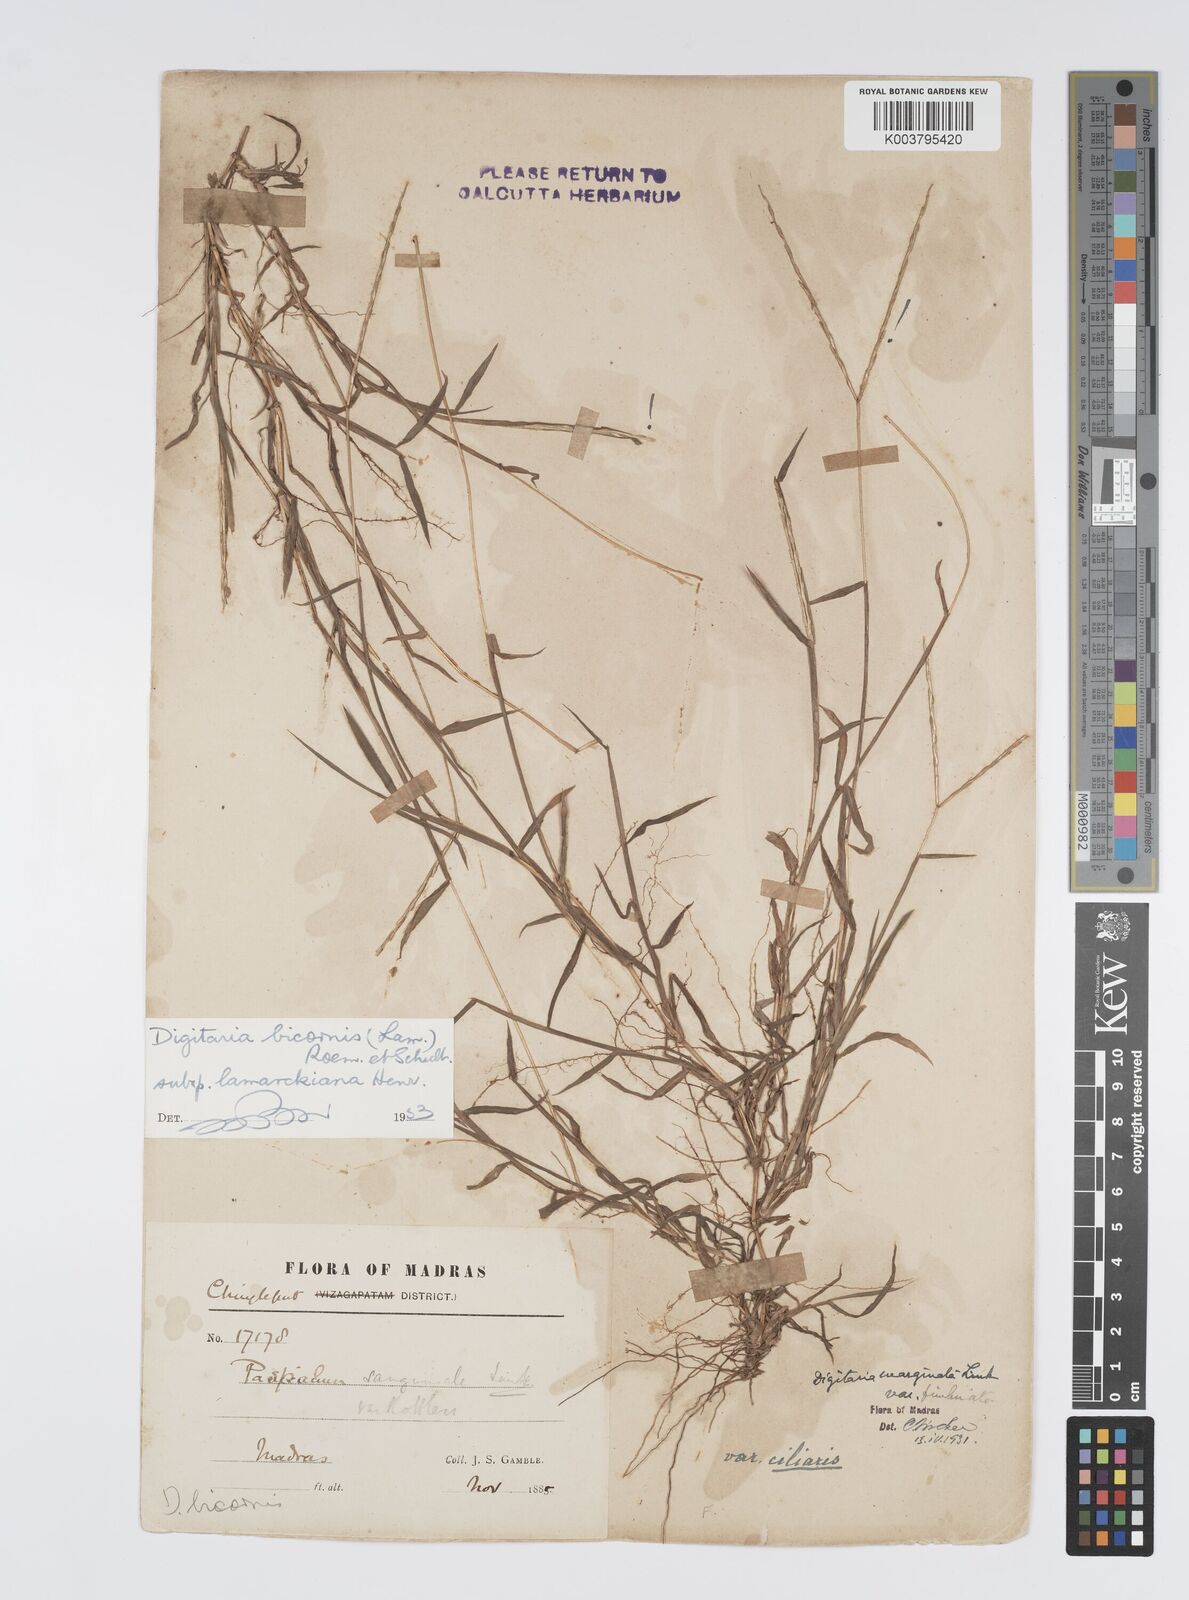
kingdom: Plantae
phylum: Tracheophyta
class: Liliopsida
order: Poales
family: Poaceae
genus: Digitaria
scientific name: Digitaria bicornis
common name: Asian crabgrass
